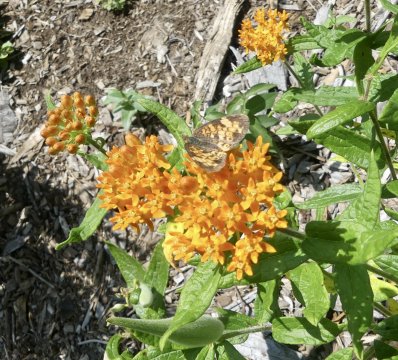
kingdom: Animalia
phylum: Arthropoda
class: Insecta
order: Lepidoptera
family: Nymphalidae
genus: Phyciodes
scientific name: Phyciodes tharos
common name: Pearl Crescent
